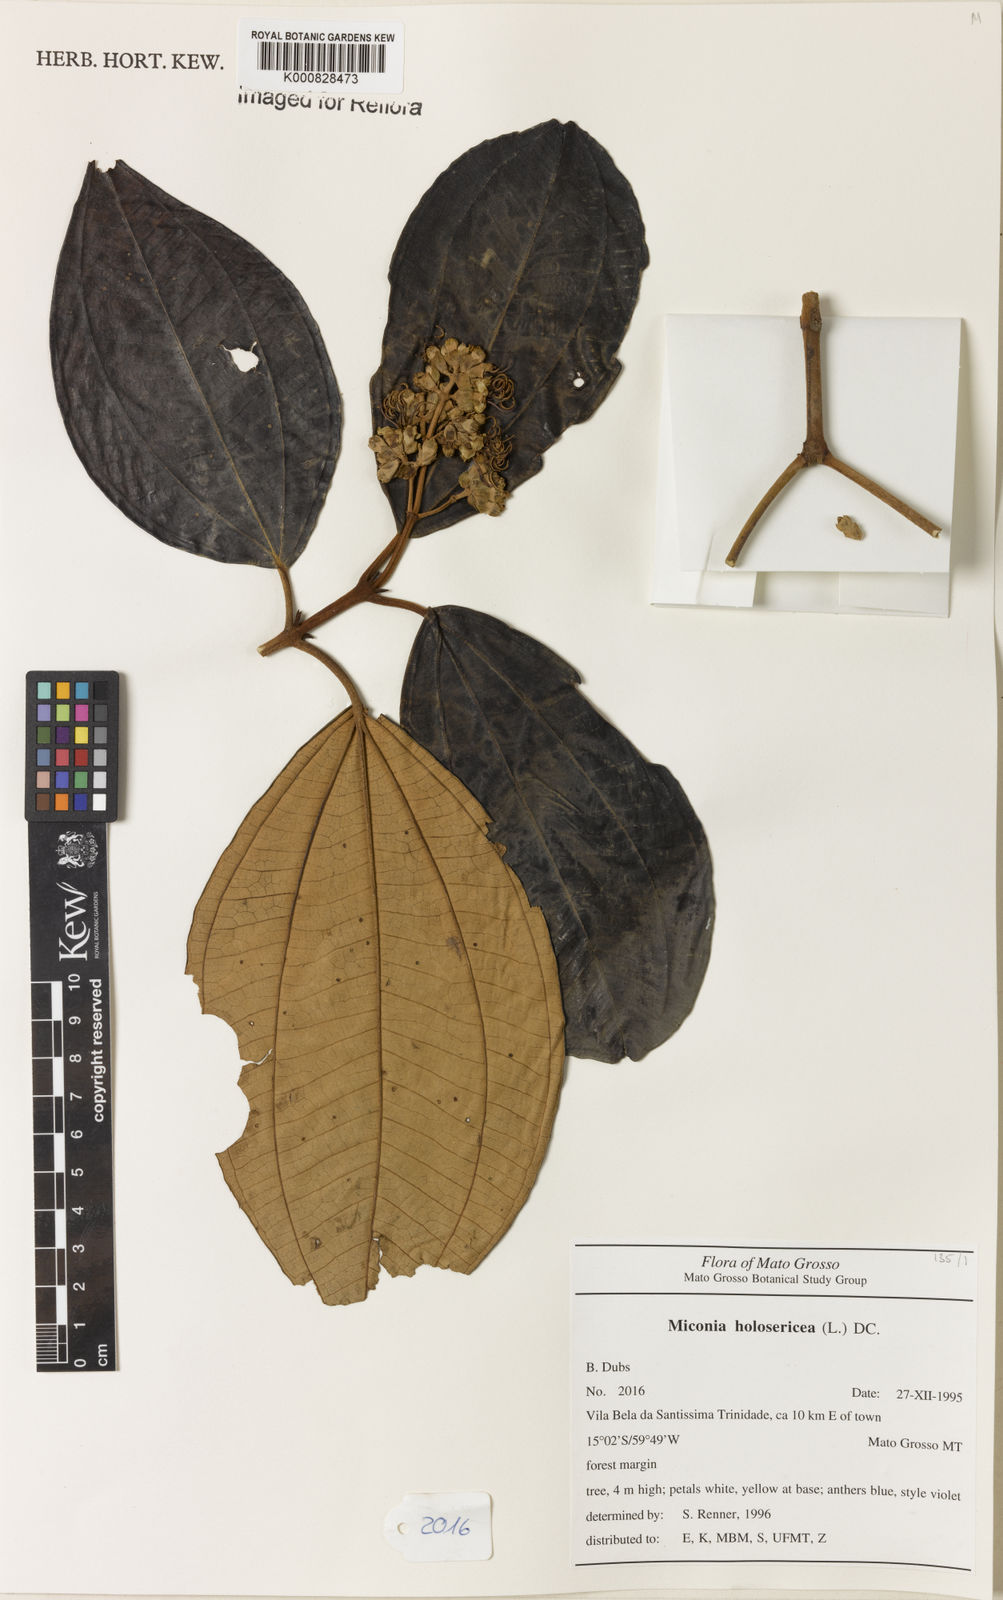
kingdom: Plantae
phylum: Tracheophyta
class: Magnoliopsida
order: Myrtales
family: Melastomataceae
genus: Miconia
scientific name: Miconia holosericea
